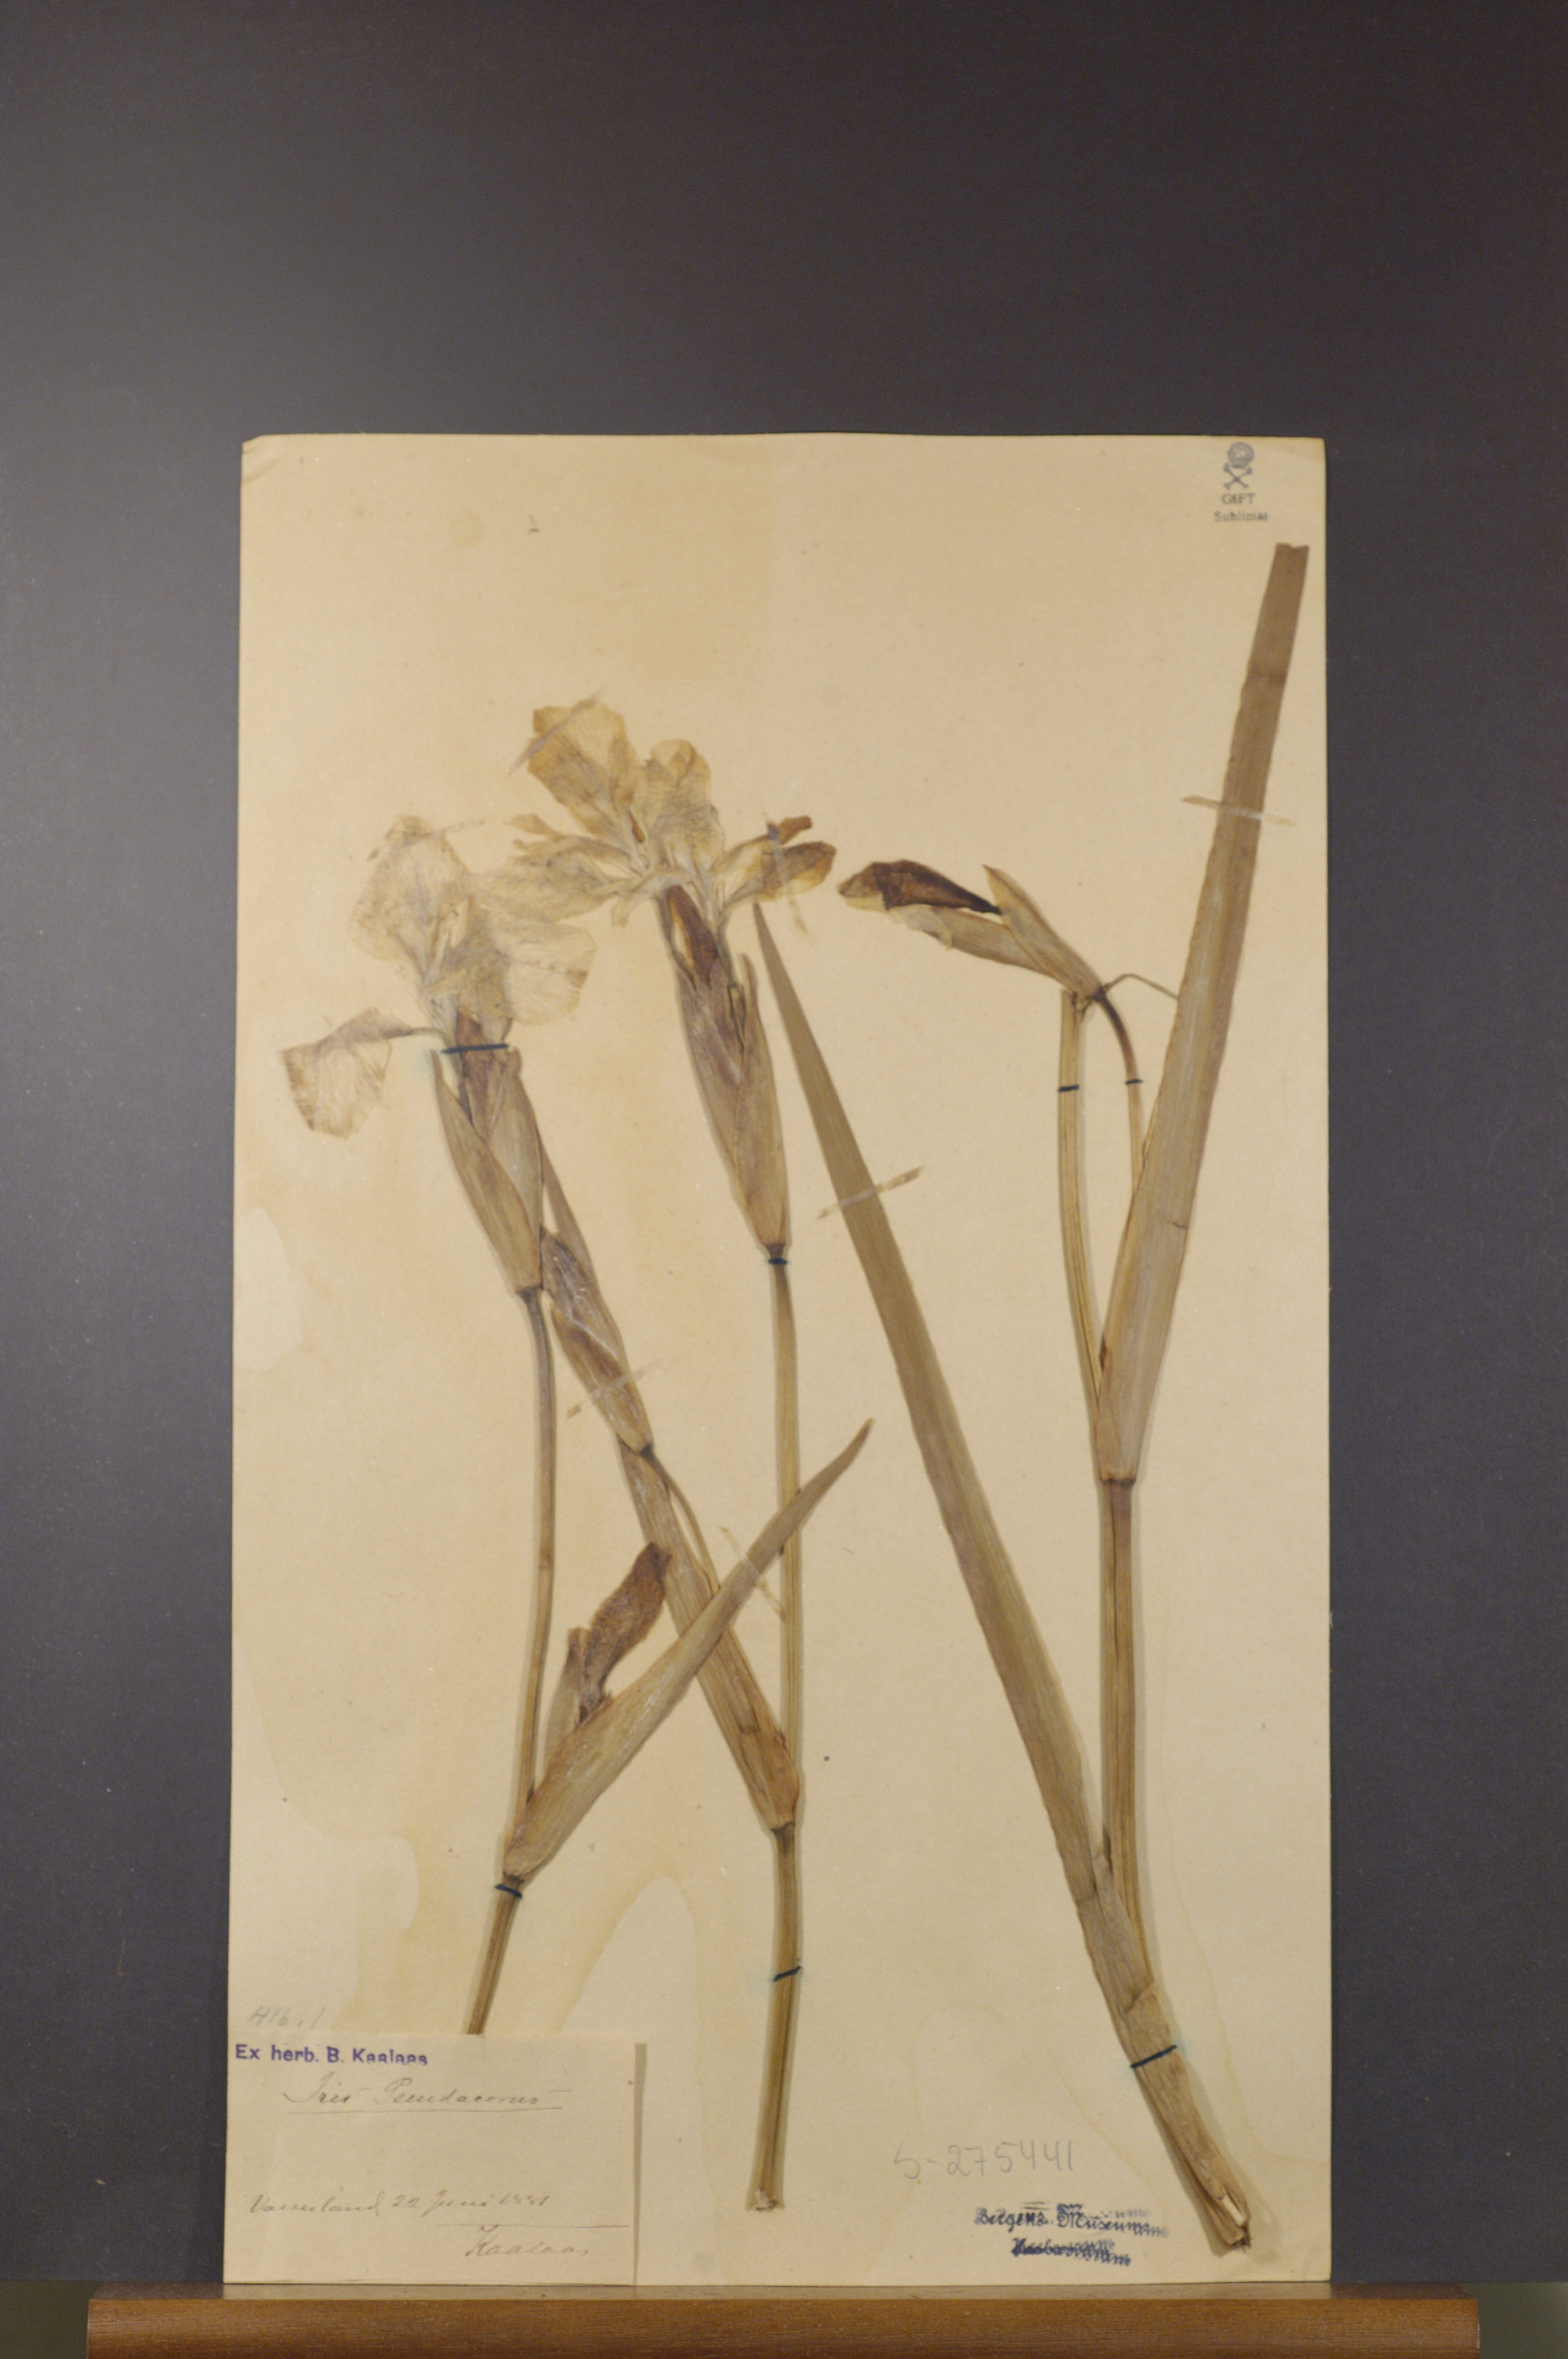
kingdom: Plantae
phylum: Tracheophyta
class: Liliopsida
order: Asparagales
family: Iridaceae
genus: Iris
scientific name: Iris pseudacorus
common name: Yellow flag
